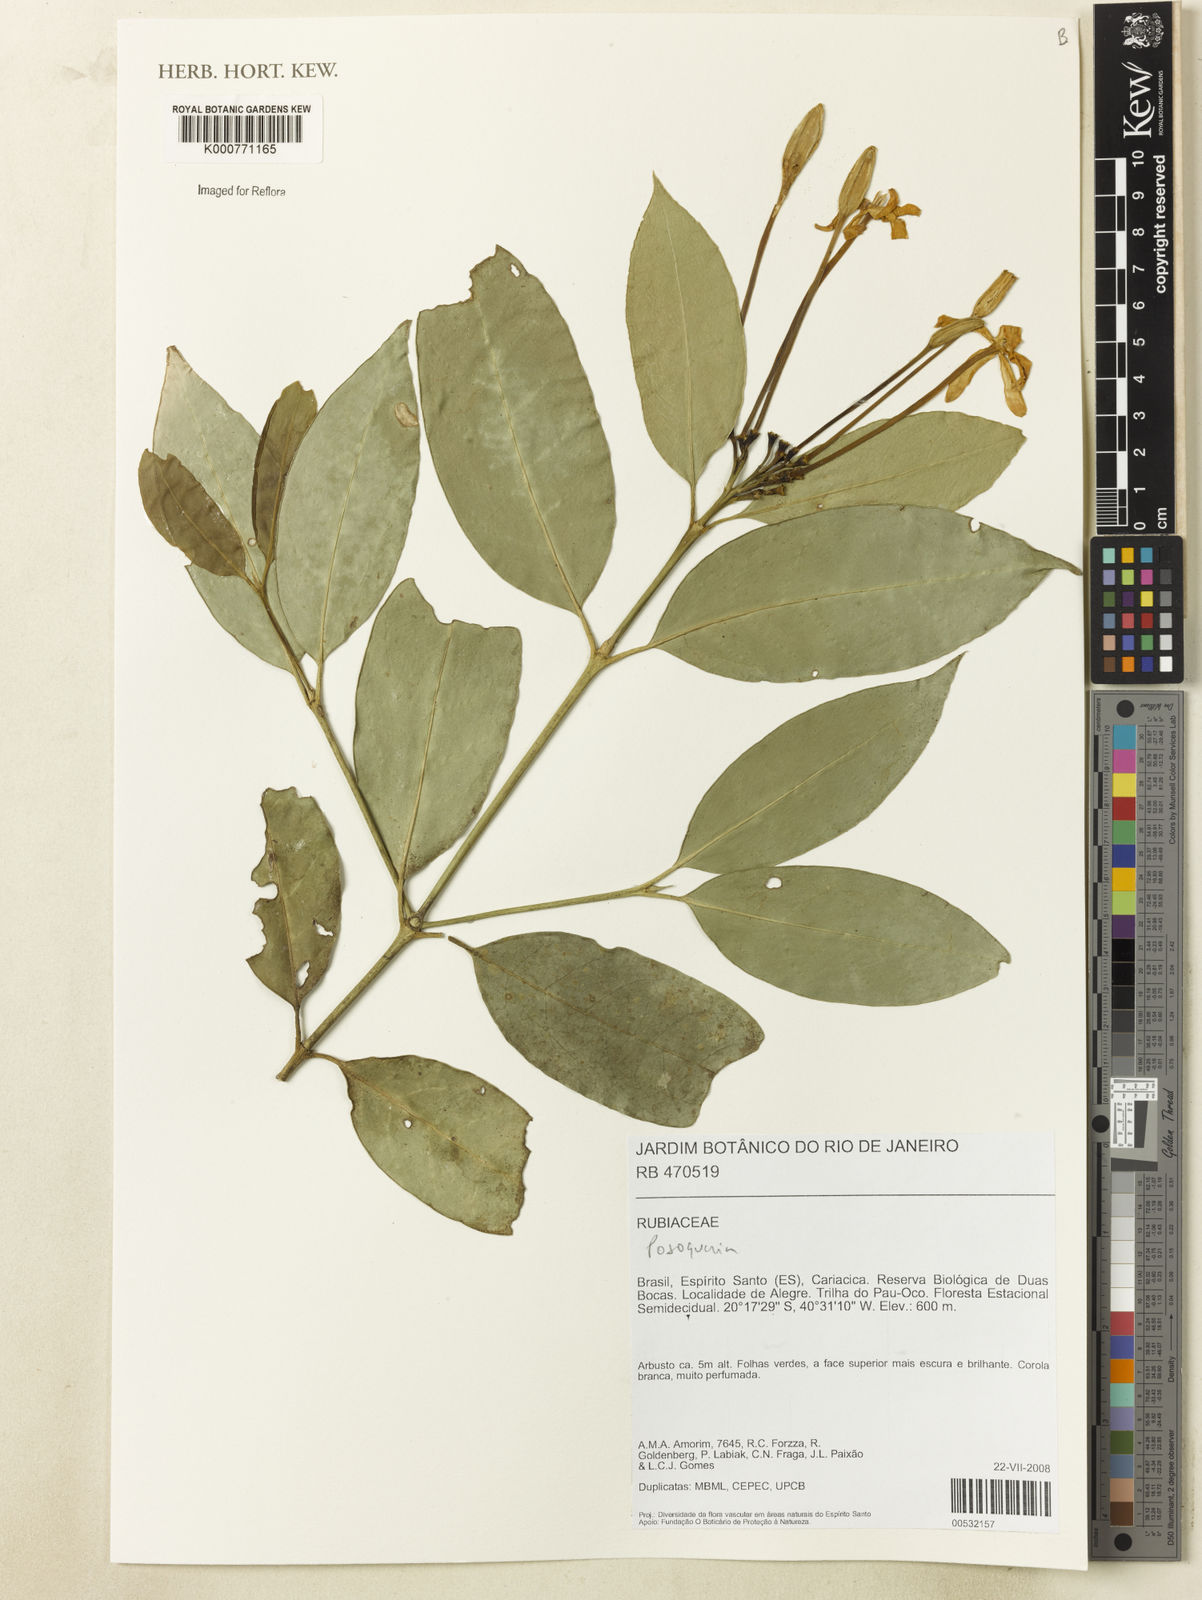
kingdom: Plantae
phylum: Tracheophyta
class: Magnoliopsida
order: Gentianales
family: Rubiaceae
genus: Posoqueria
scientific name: Posoqueria
